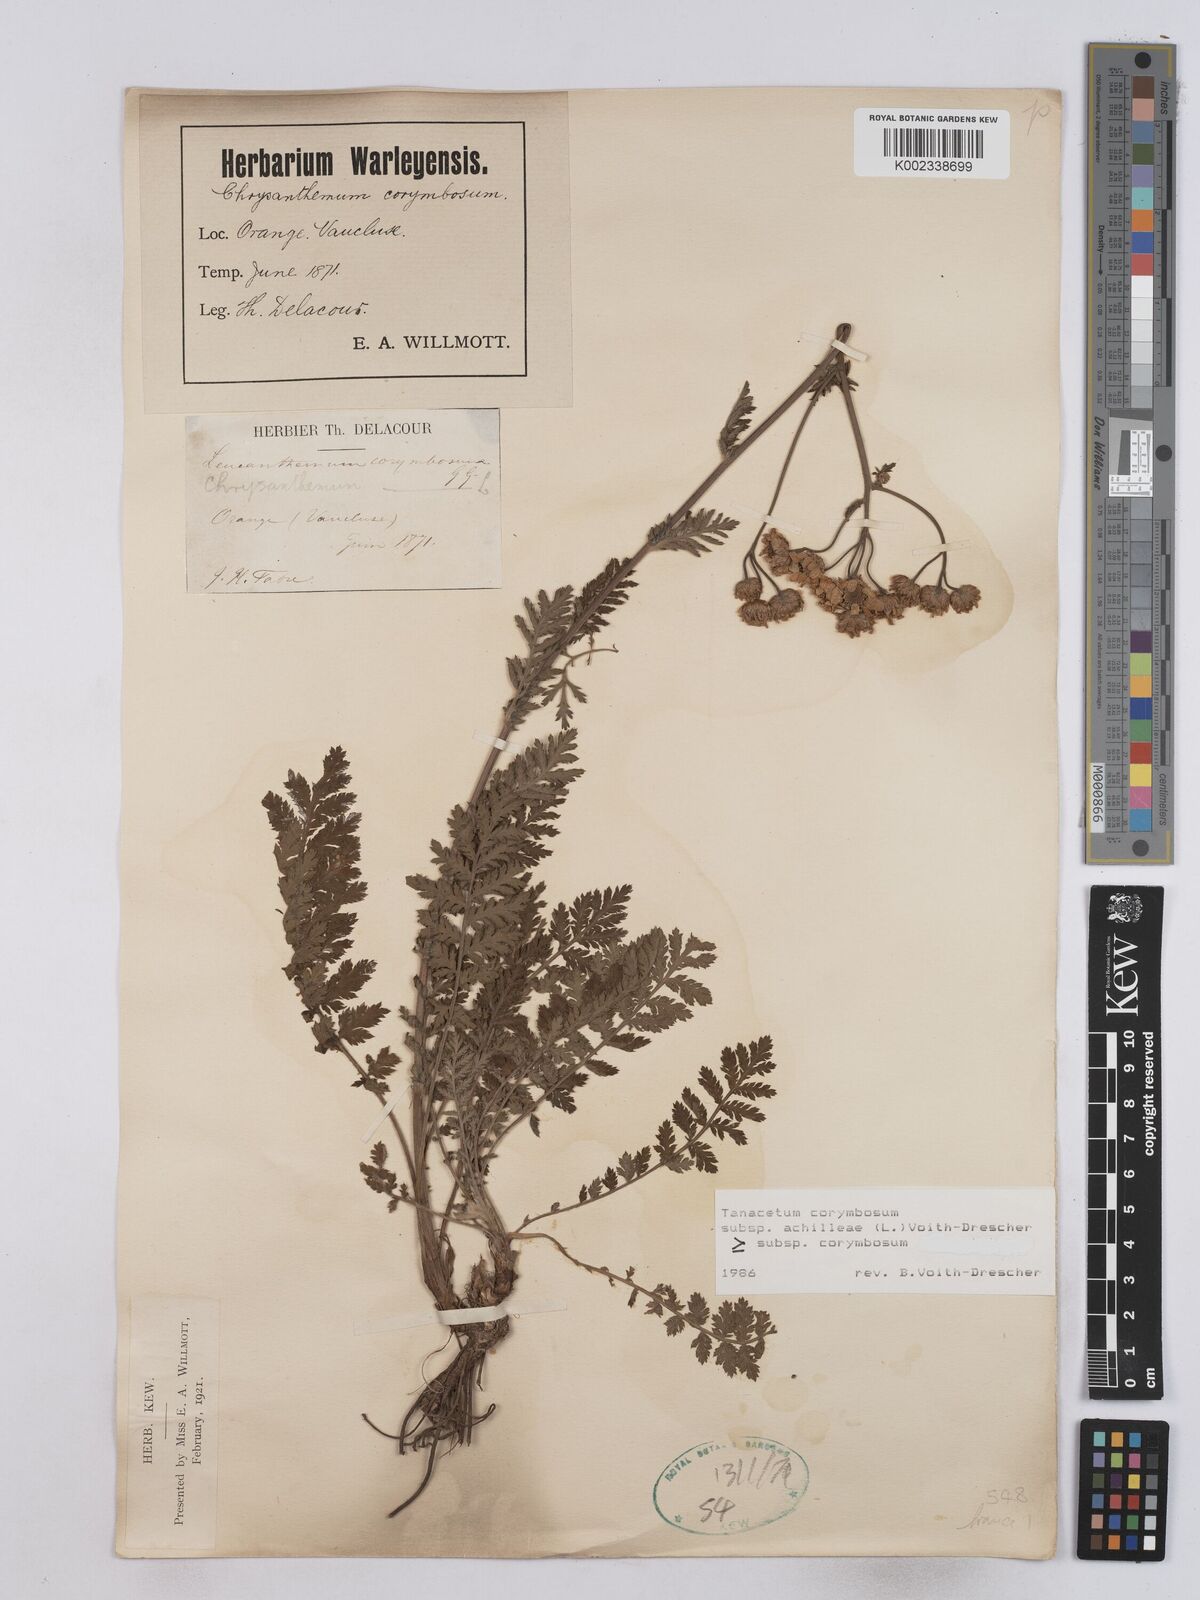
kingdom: Plantae
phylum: Tracheophyta
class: Magnoliopsida
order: Asterales
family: Asteraceae
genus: Tanacetum
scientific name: Tanacetum corymbosum
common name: Scentless feverfew
